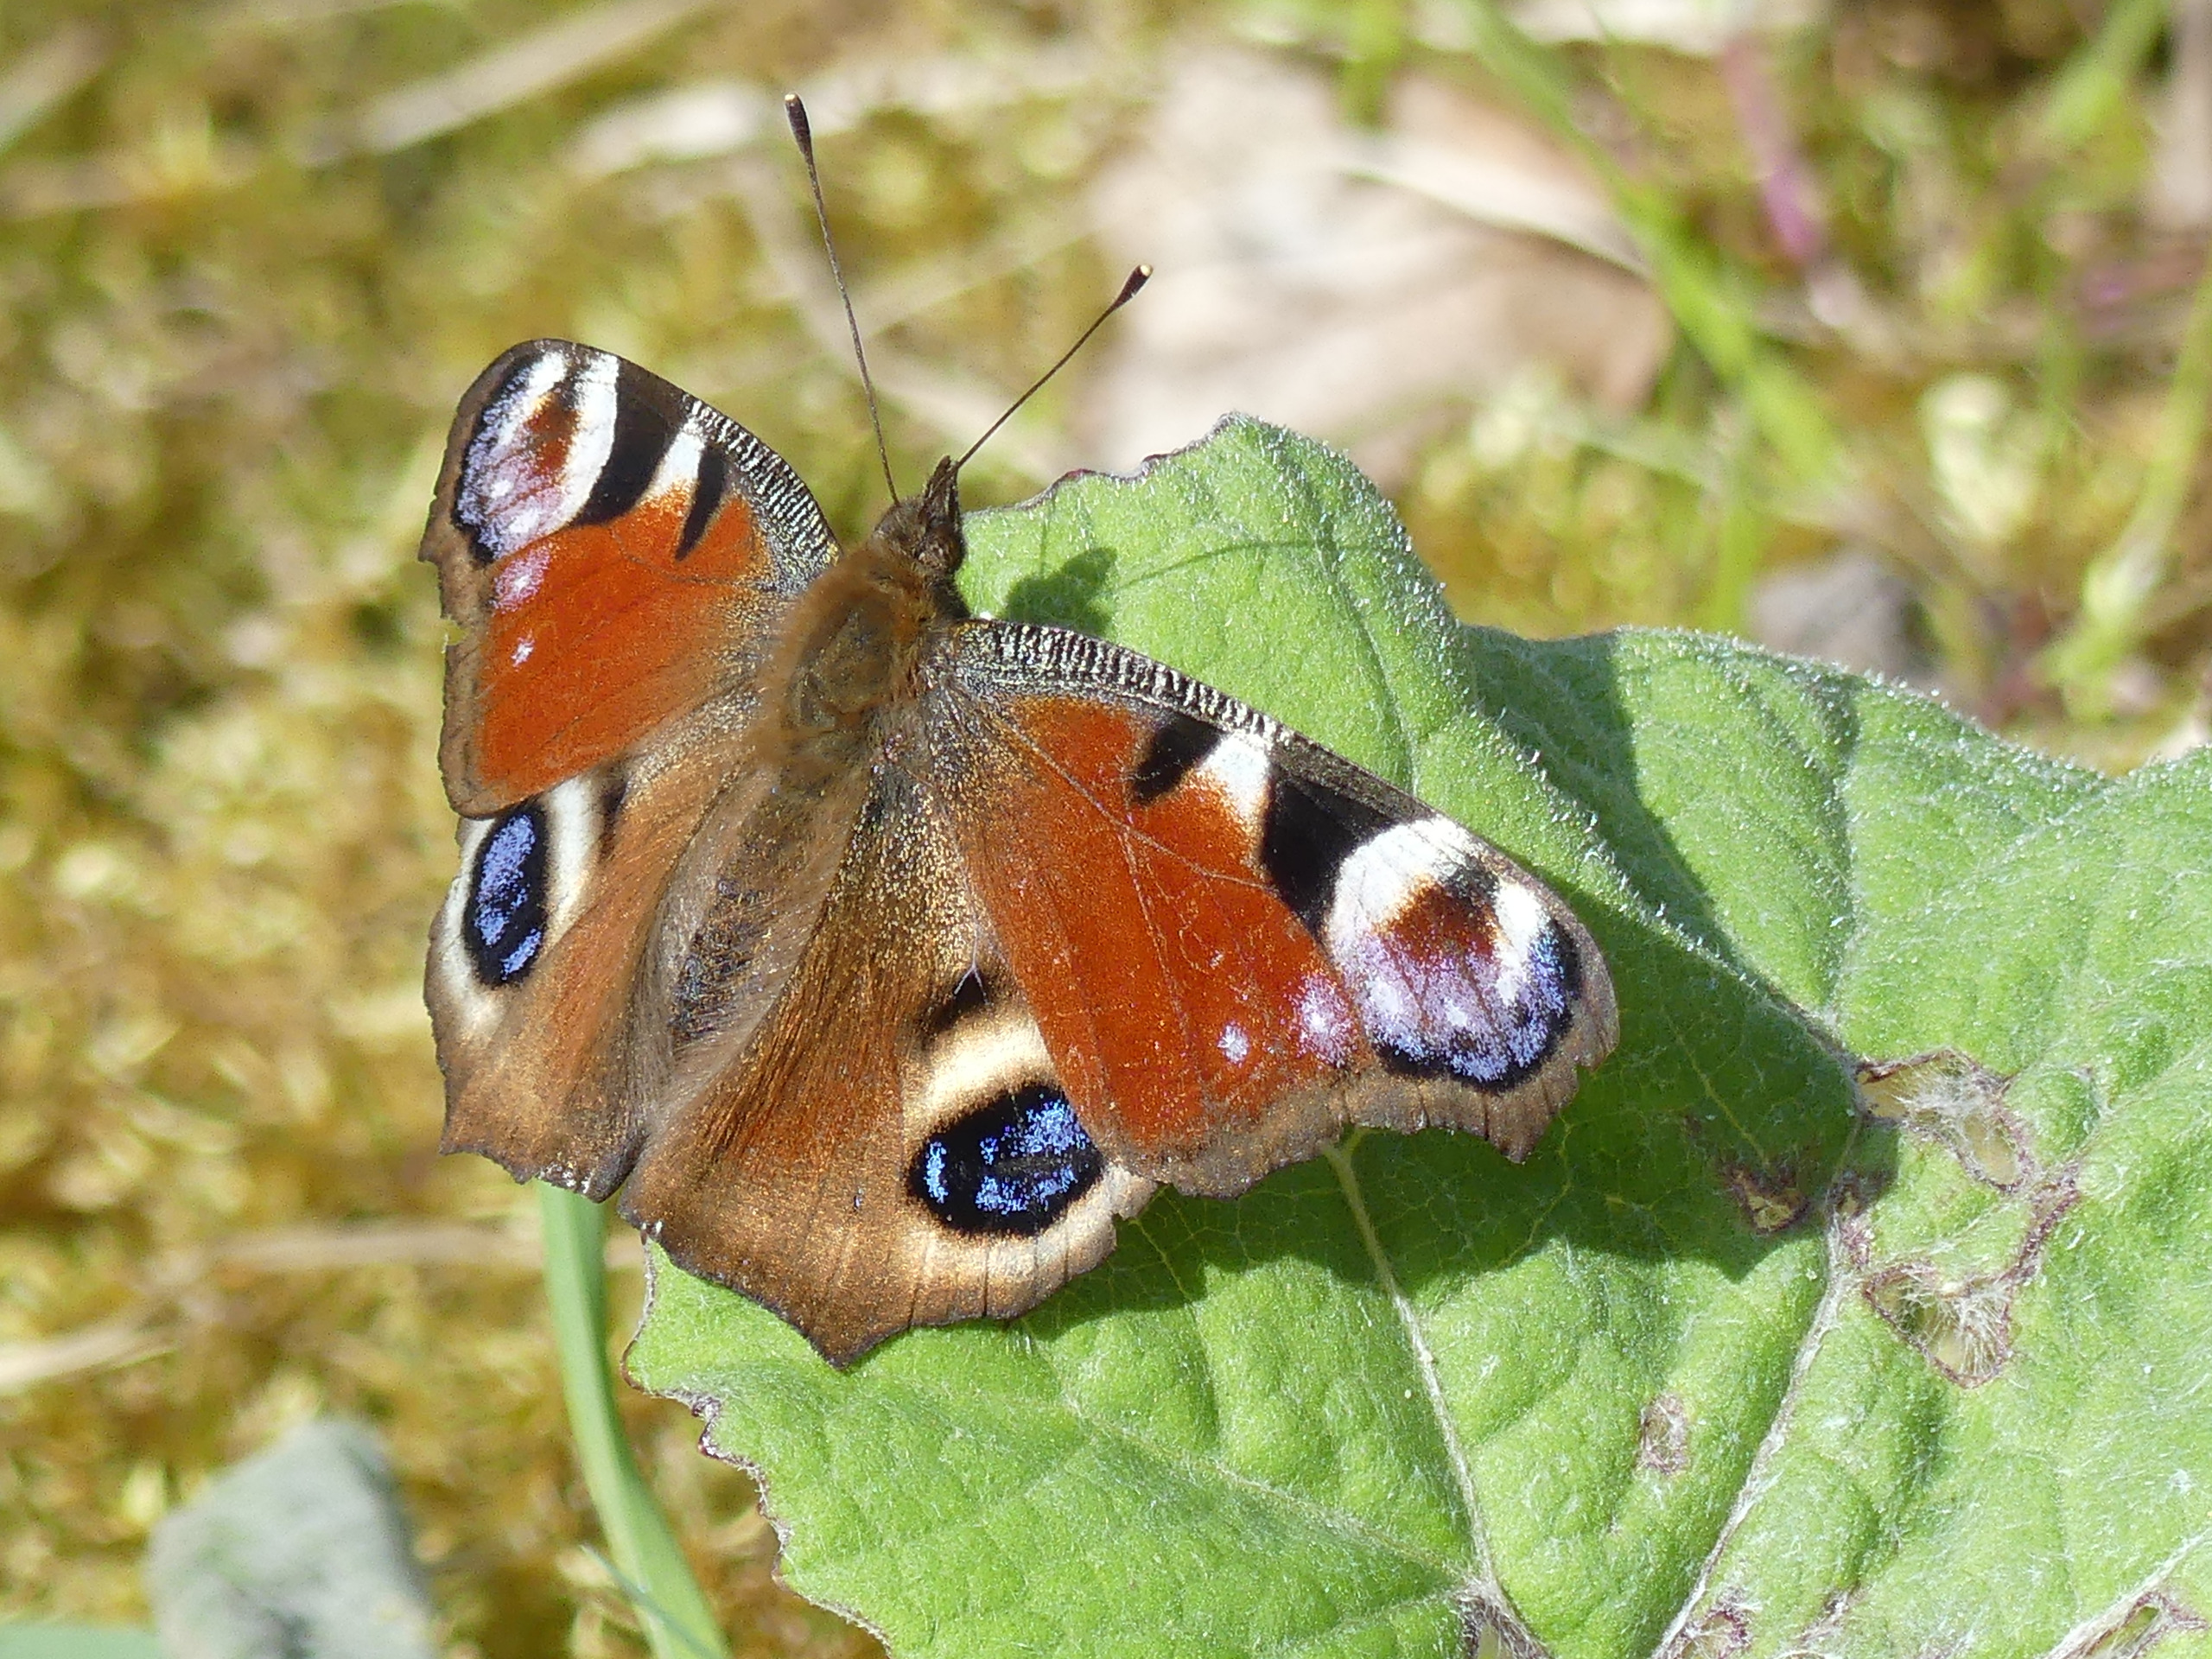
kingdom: Animalia
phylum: Arthropoda
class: Insecta
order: Lepidoptera
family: Nymphalidae
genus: Aglais
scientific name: Aglais io
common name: Dagpåfugleøje
